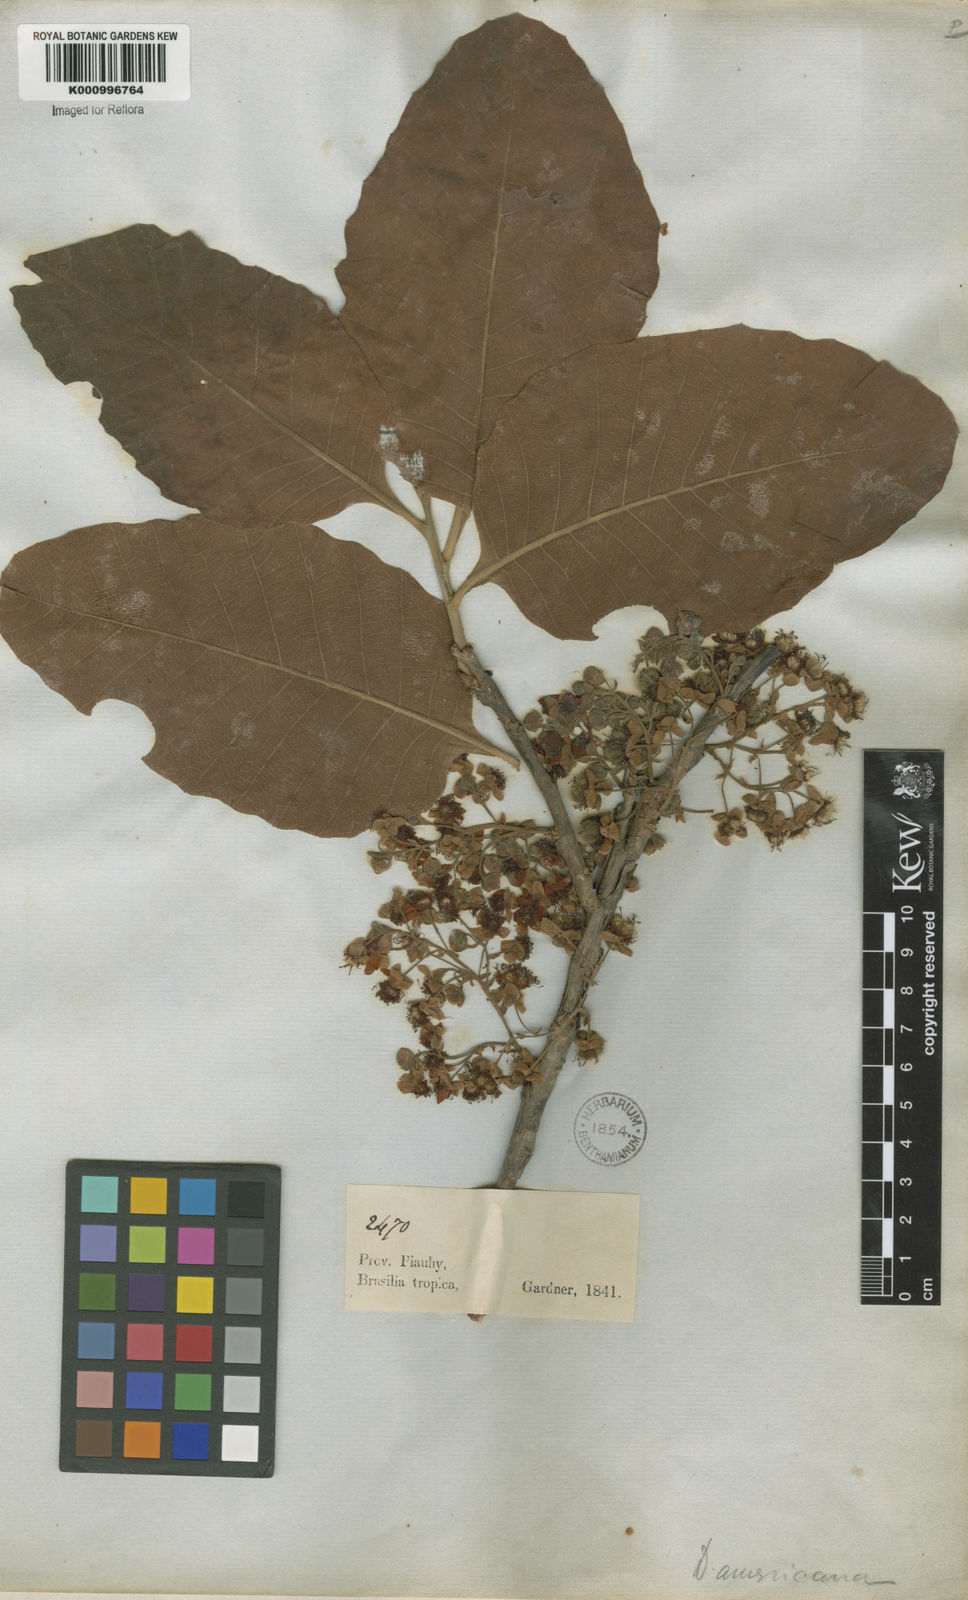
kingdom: Plantae
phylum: Tracheophyta
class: Magnoliopsida
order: Dilleniales
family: Dilleniaceae
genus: Curatella
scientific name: Curatella americana
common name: Sandpaper tree
